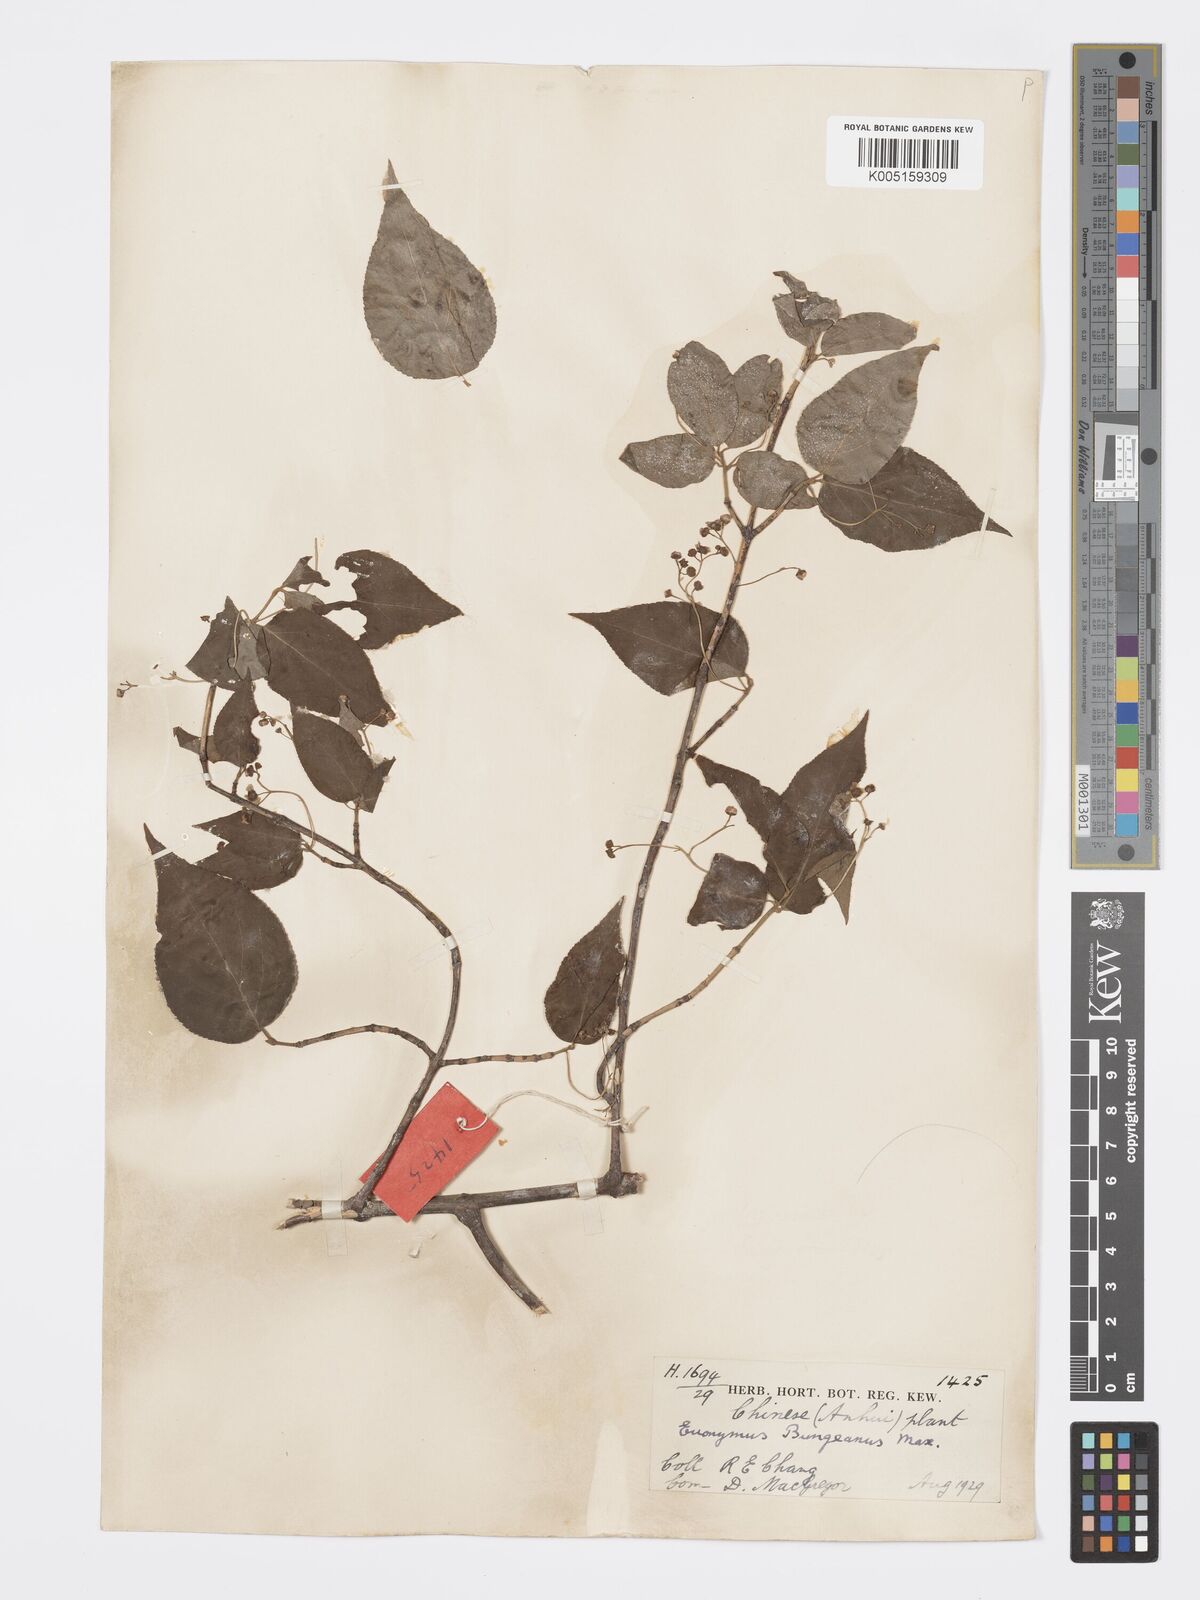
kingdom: Plantae
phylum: Tracheophyta
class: Magnoliopsida
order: Celastrales
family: Celastraceae
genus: Euonymus
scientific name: Euonymus maackii
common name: Hamilton's spindletree
